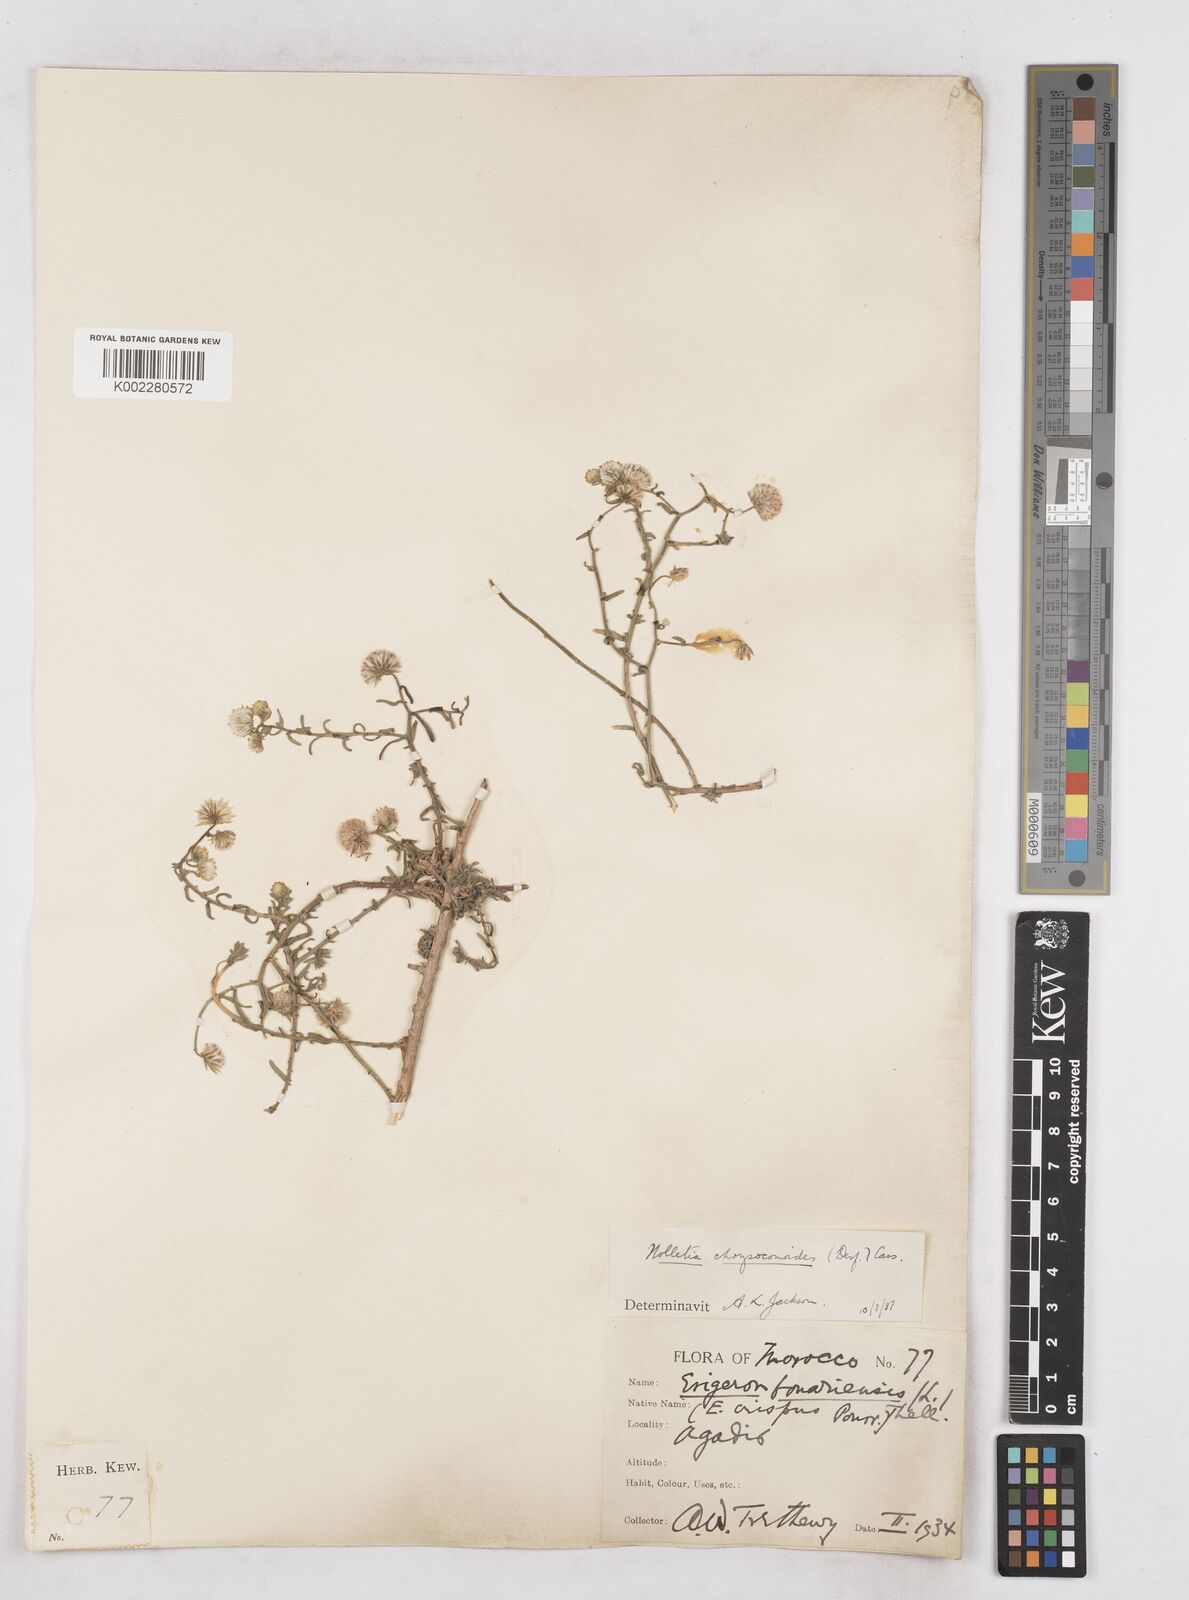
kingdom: Plantae
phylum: Tracheophyta
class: Magnoliopsida
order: Asterales
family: Asteraceae
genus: Nolletia
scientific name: Nolletia chrysocomoides
